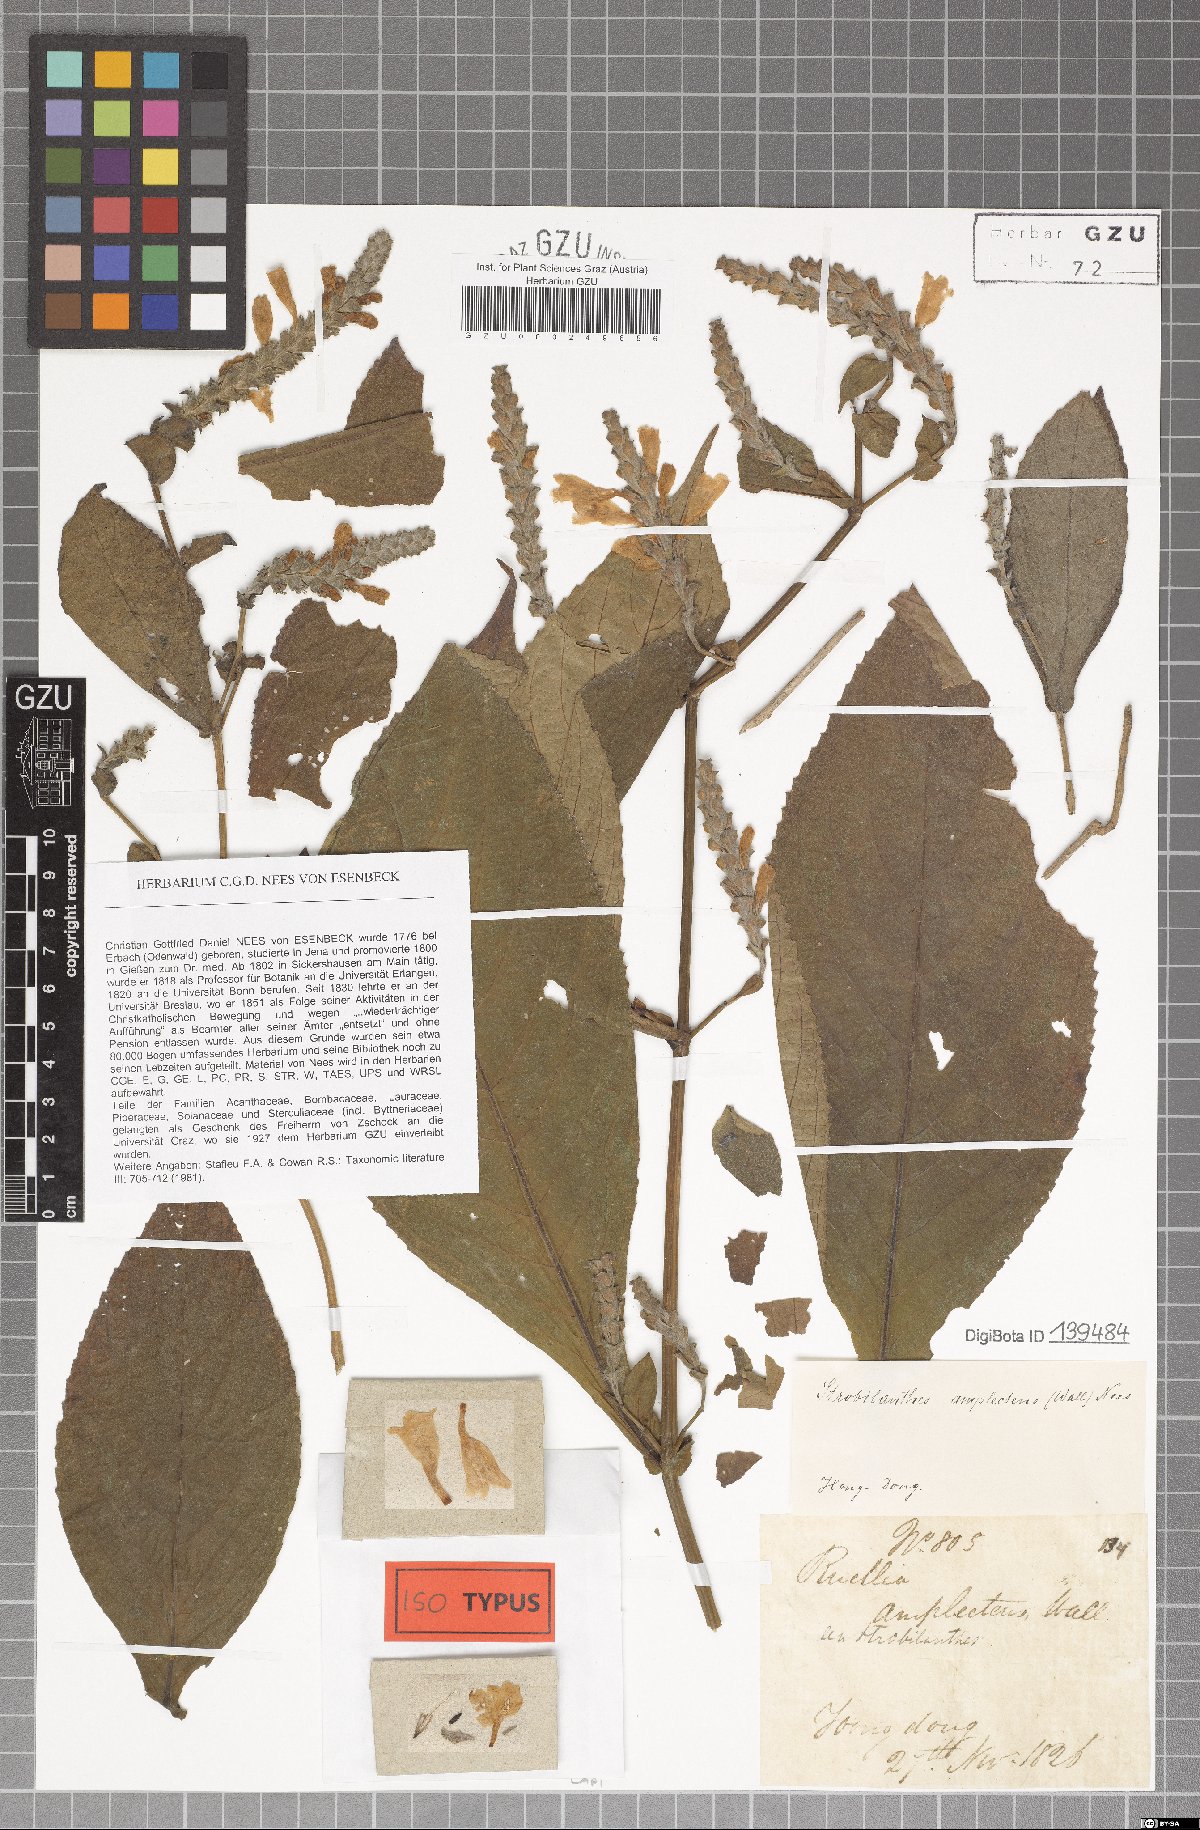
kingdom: Plantae
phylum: Tracheophyta
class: Magnoliopsida
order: Lamiales
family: Acanthaceae
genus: Strobilanthes
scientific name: Strobilanthes auriculata
